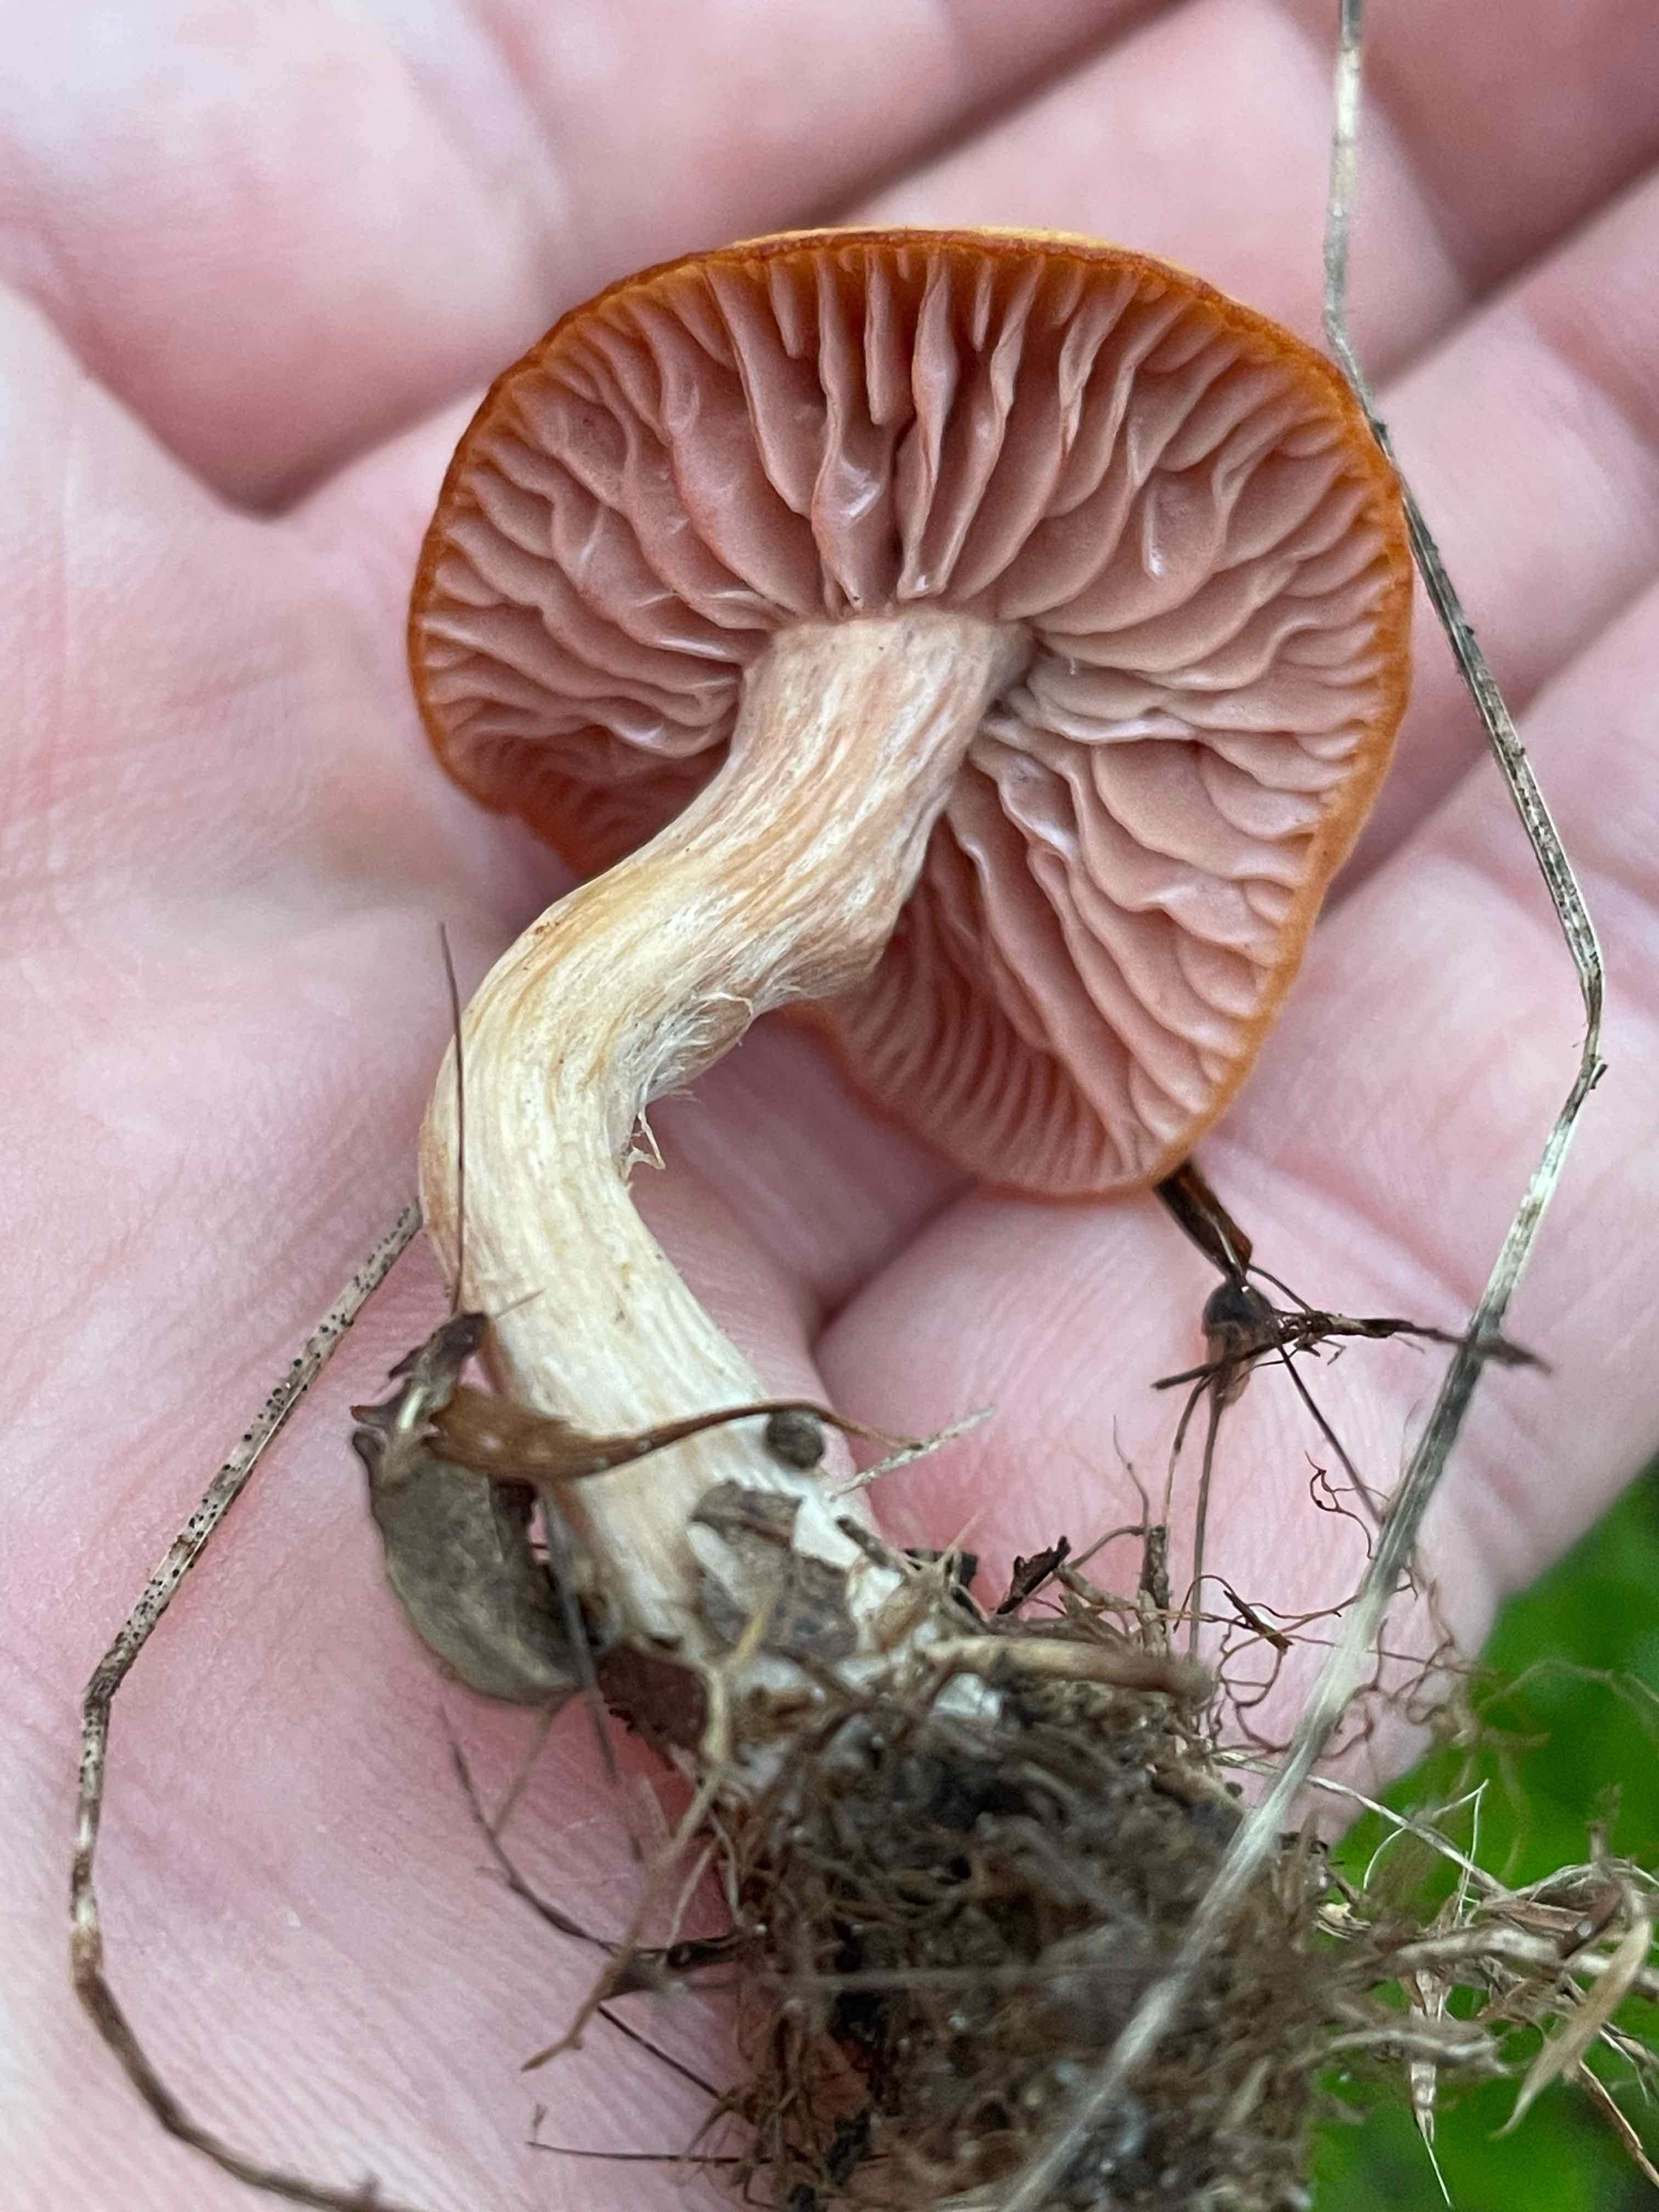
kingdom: Fungi
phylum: Basidiomycota
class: Agaricomycetes
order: Agaricales
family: Hydnangiaceae
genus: Laccaria
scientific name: Laccaria laccata
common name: rød ametysthat
